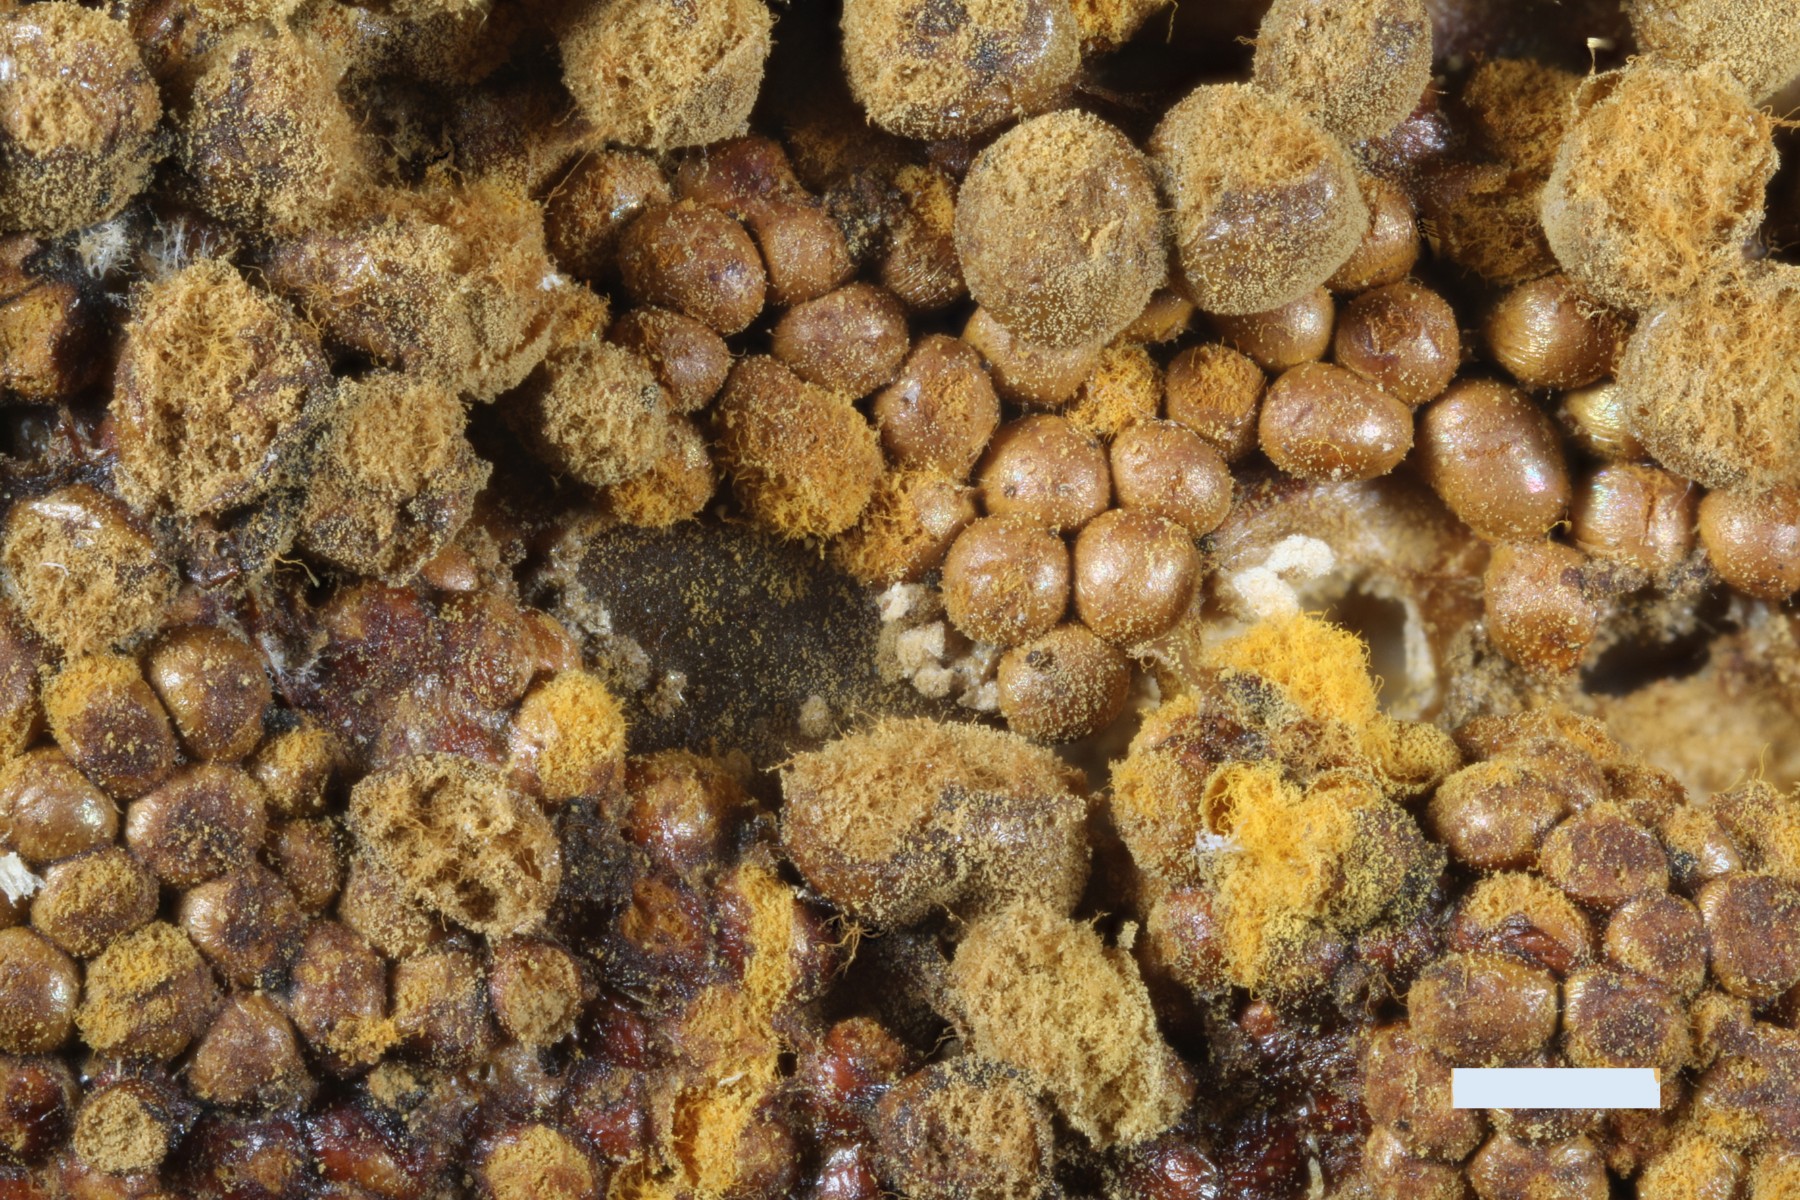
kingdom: Protozoa
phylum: Mycetozoa
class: Myxomycetes
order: Trichiales
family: Trichiaceae
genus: Trichia
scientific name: Trichia scabra
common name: tæppe-hårbold
